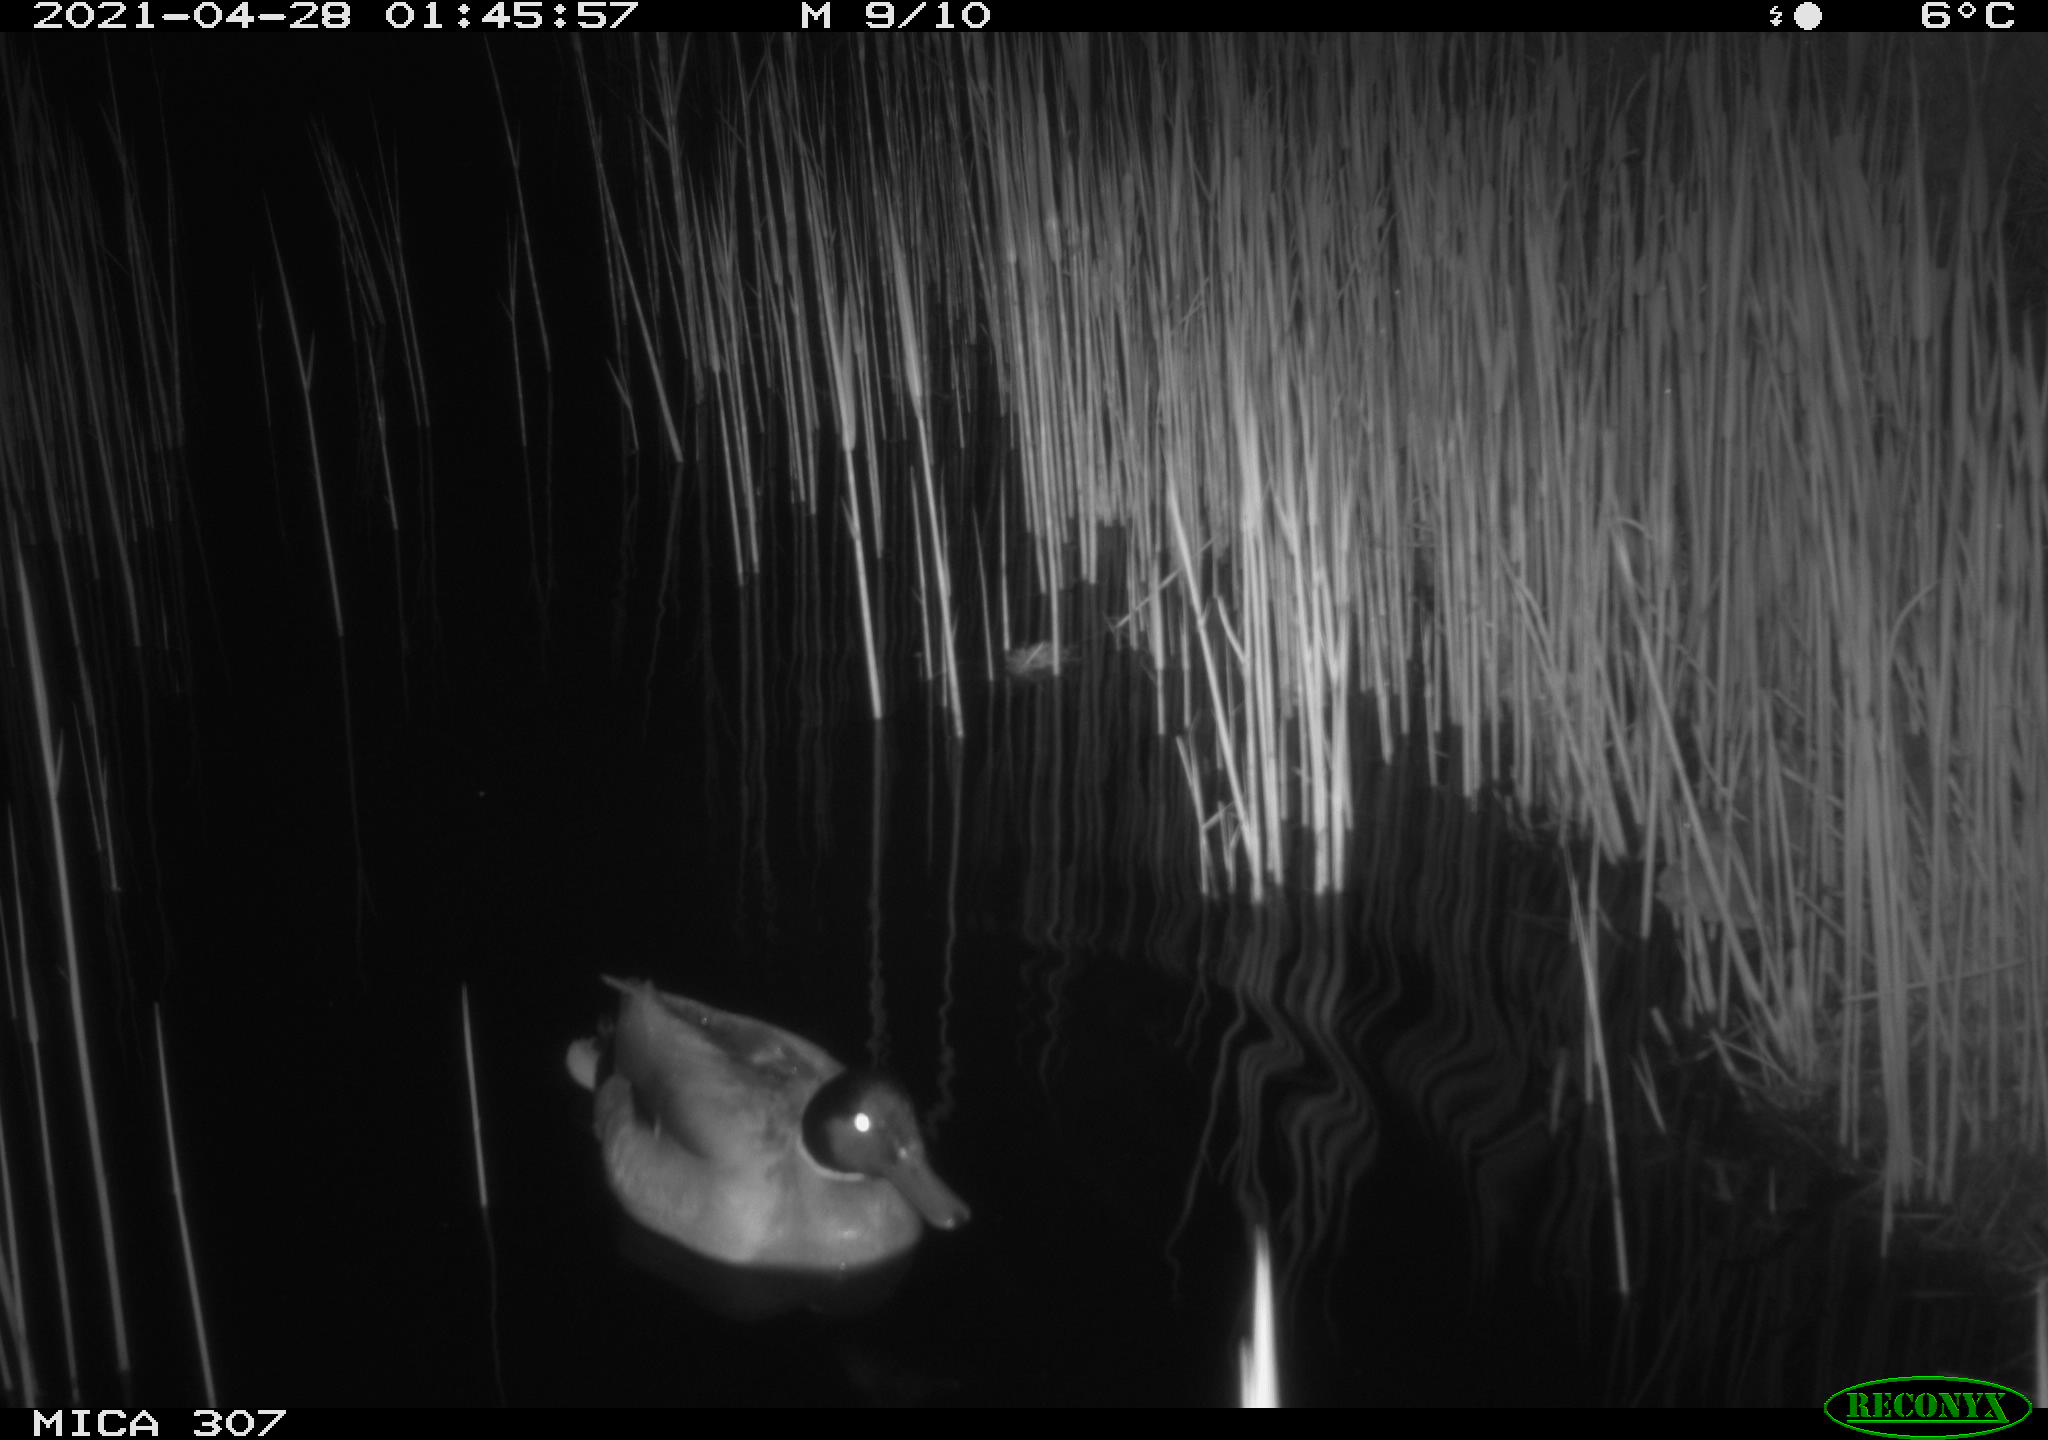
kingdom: Animalia
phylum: Chordata
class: Aves
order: Gruiformes
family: Rallidae
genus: Gallinula
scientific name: Gallinula chloropus
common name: Common moorhen
